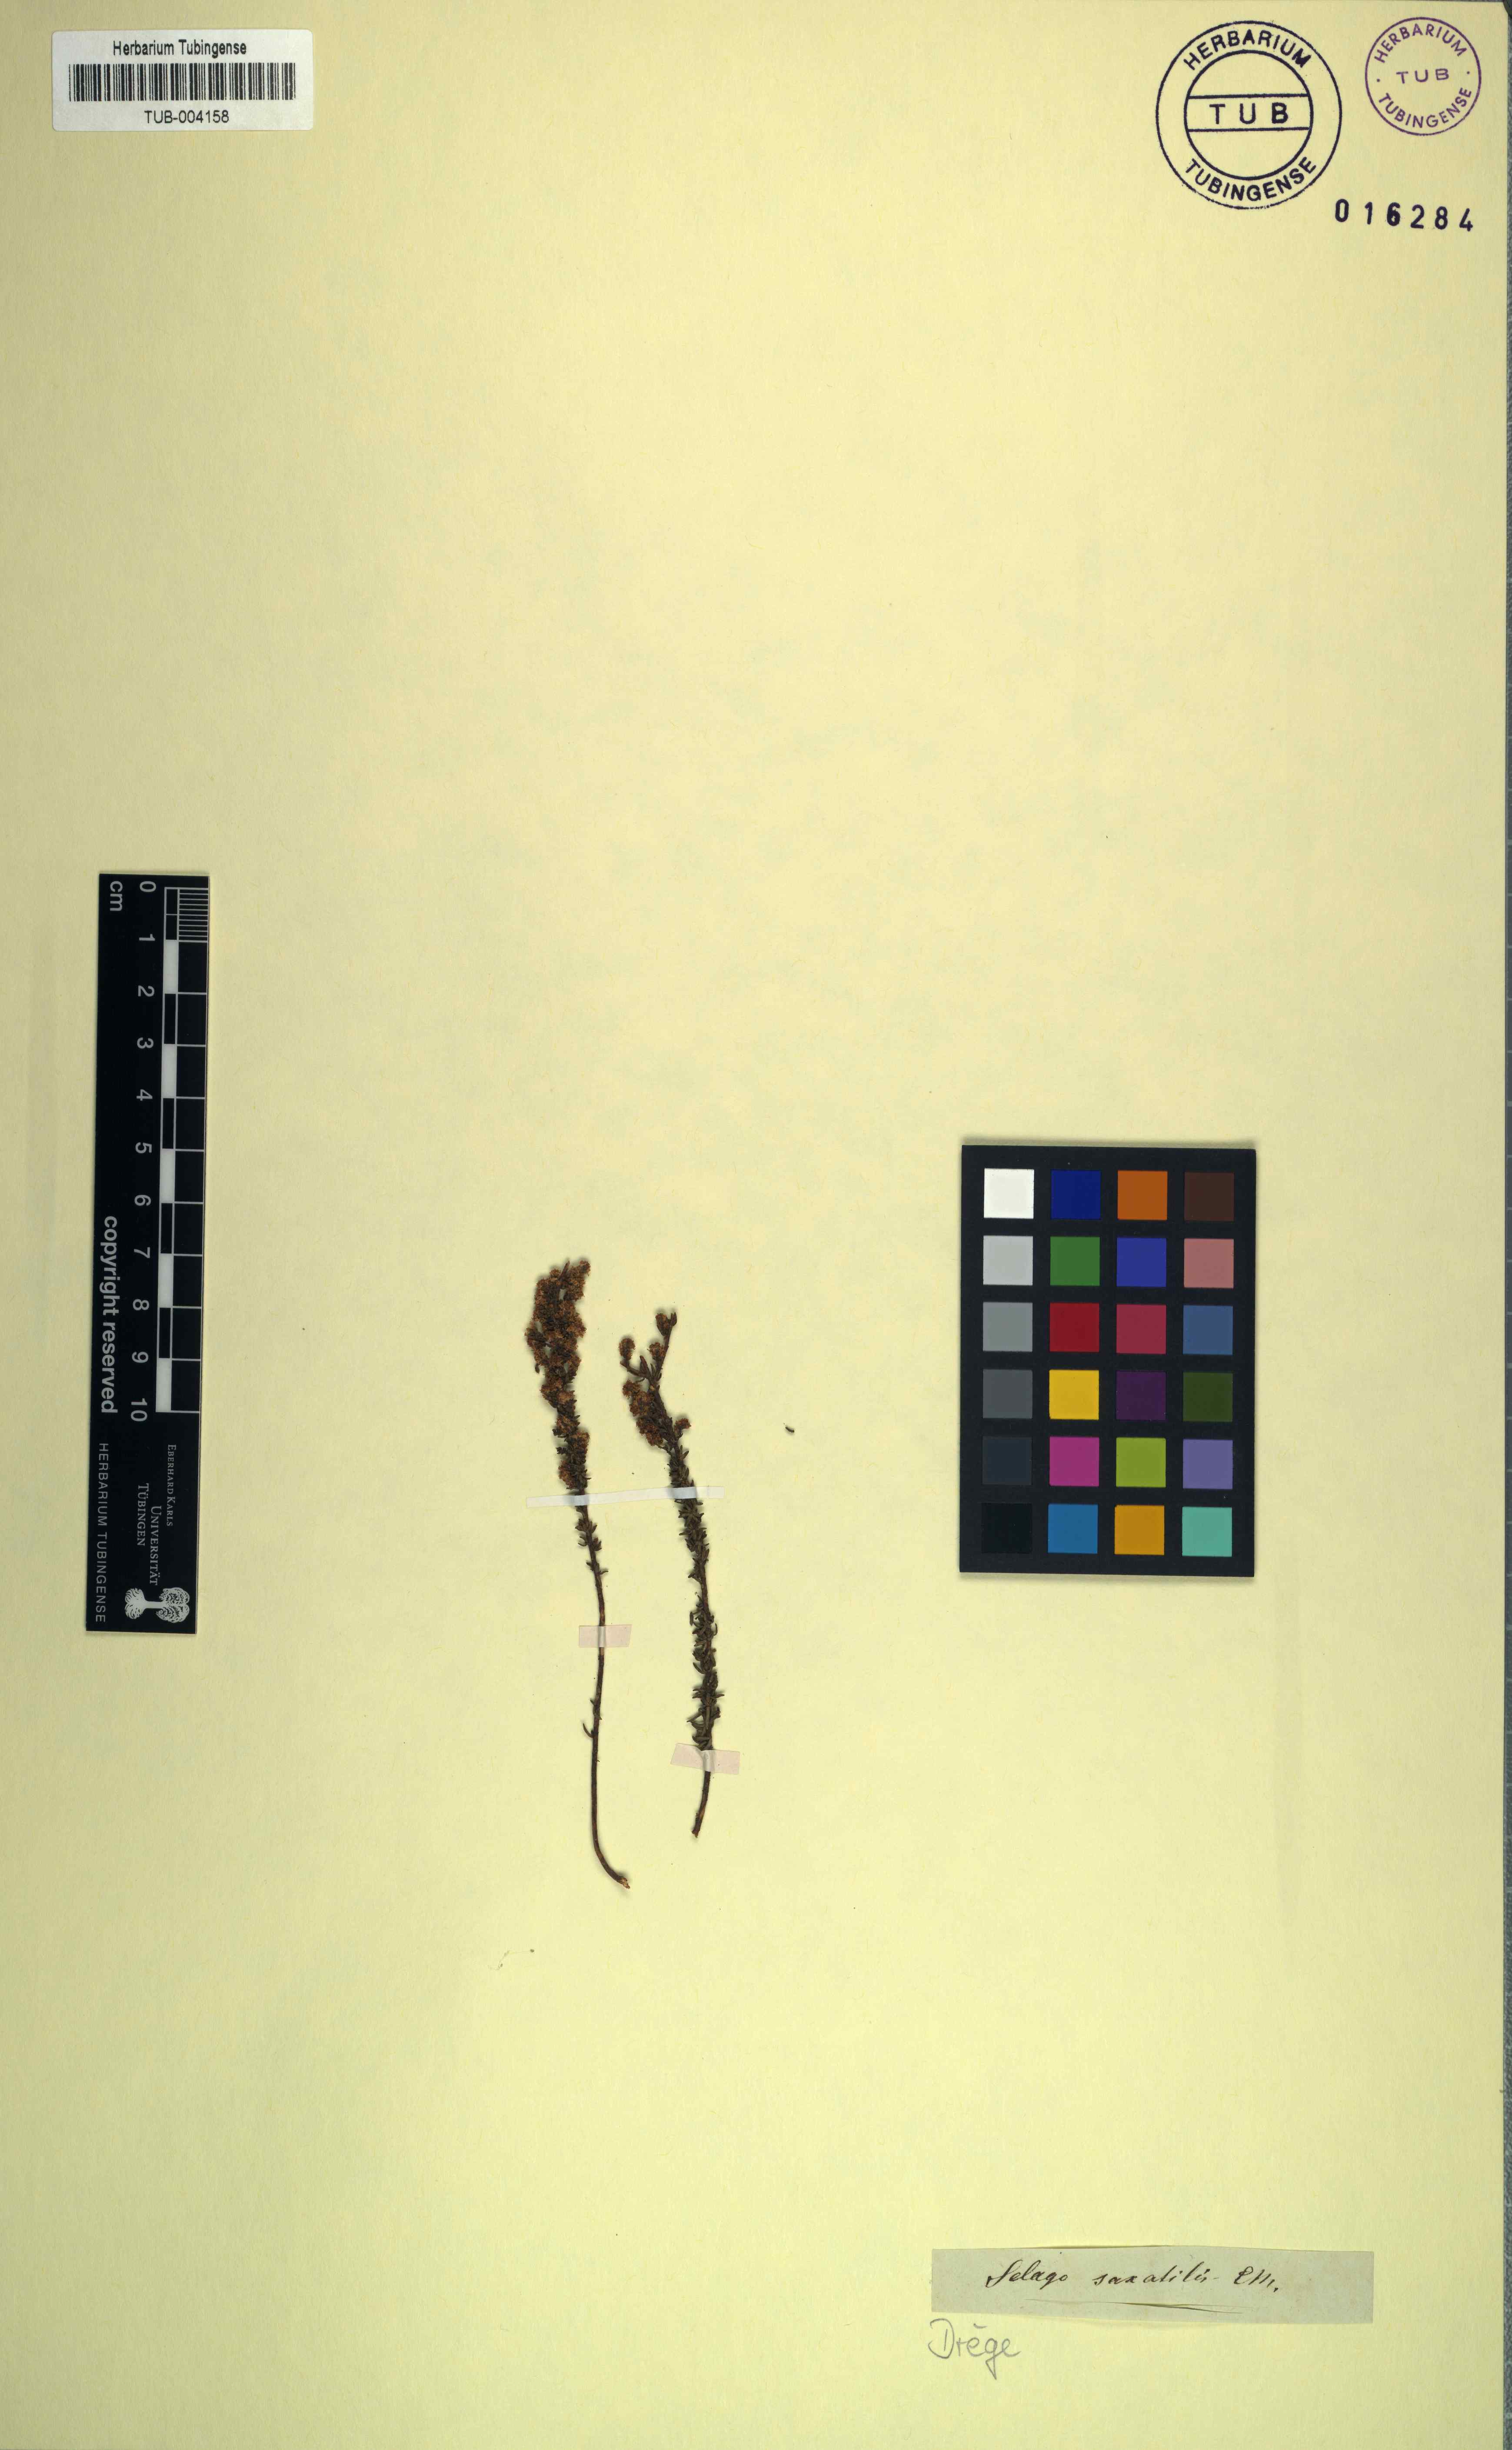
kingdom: Plantae
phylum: Tracheophyta
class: Magnoliopsida
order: Lamiales
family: Scrophulariaceae
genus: Selago
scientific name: Selago saxatilis
